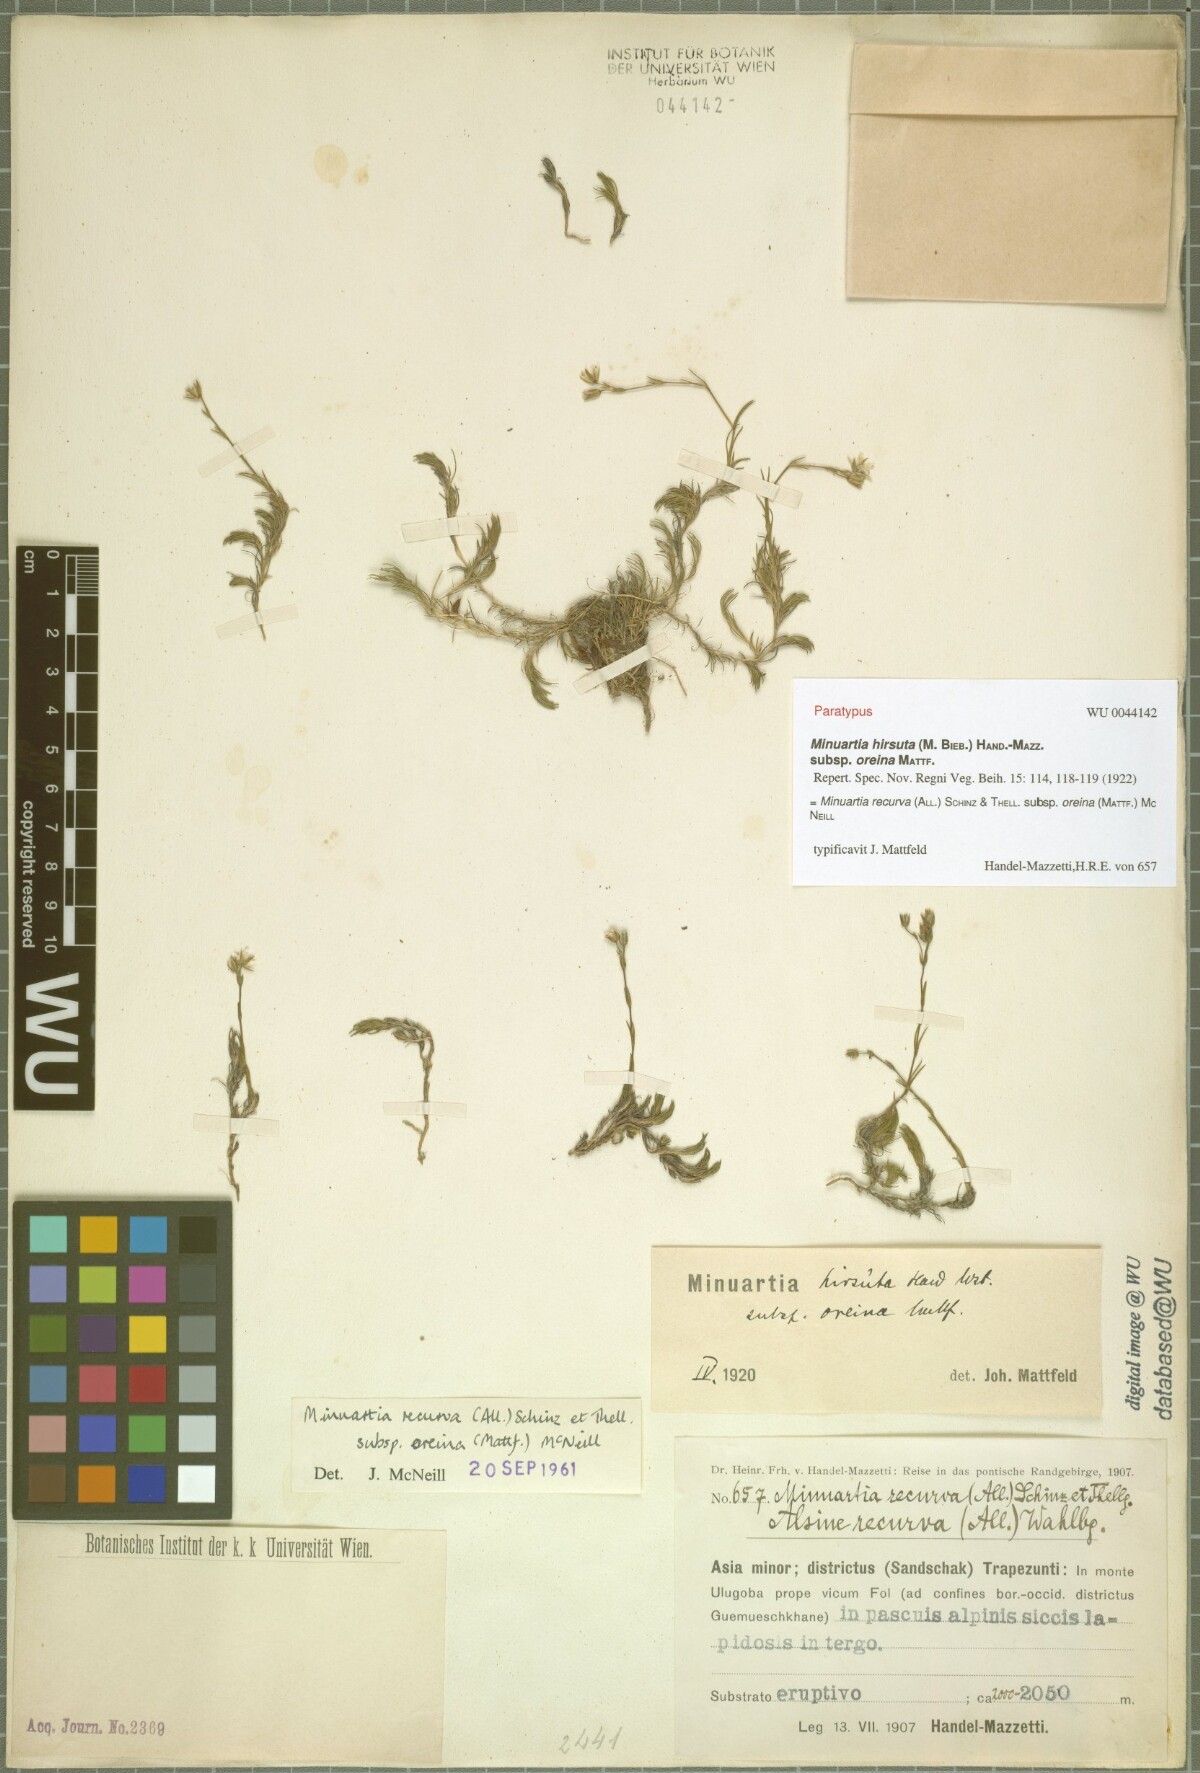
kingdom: Plantae
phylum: Tracheophyta
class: Magnoliopsida
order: Caryophyllales
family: Caryophyllaceae
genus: Minuartia
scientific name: Minuartia hirsuta
